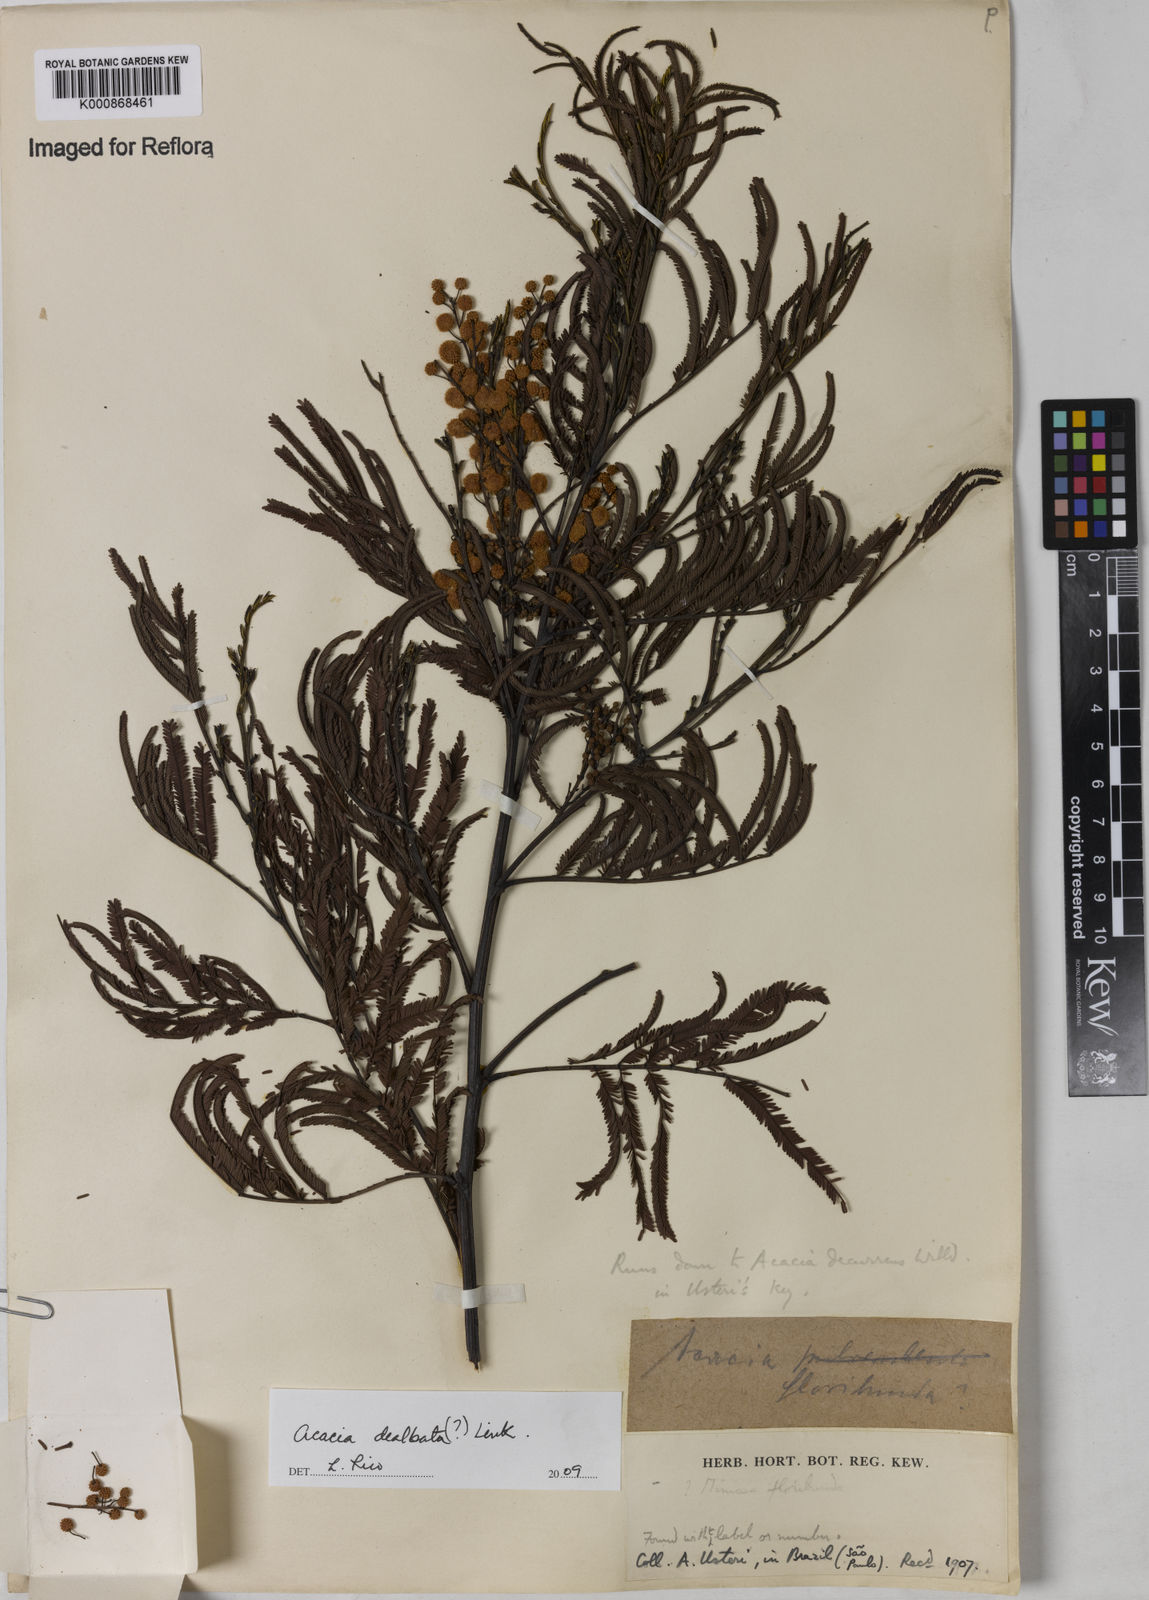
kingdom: Plantae
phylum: Tracheophyta
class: Magnoliopsida
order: Fabales
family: Fabaceae
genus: Acacia
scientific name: Acacia dealbata
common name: Silver wattle
